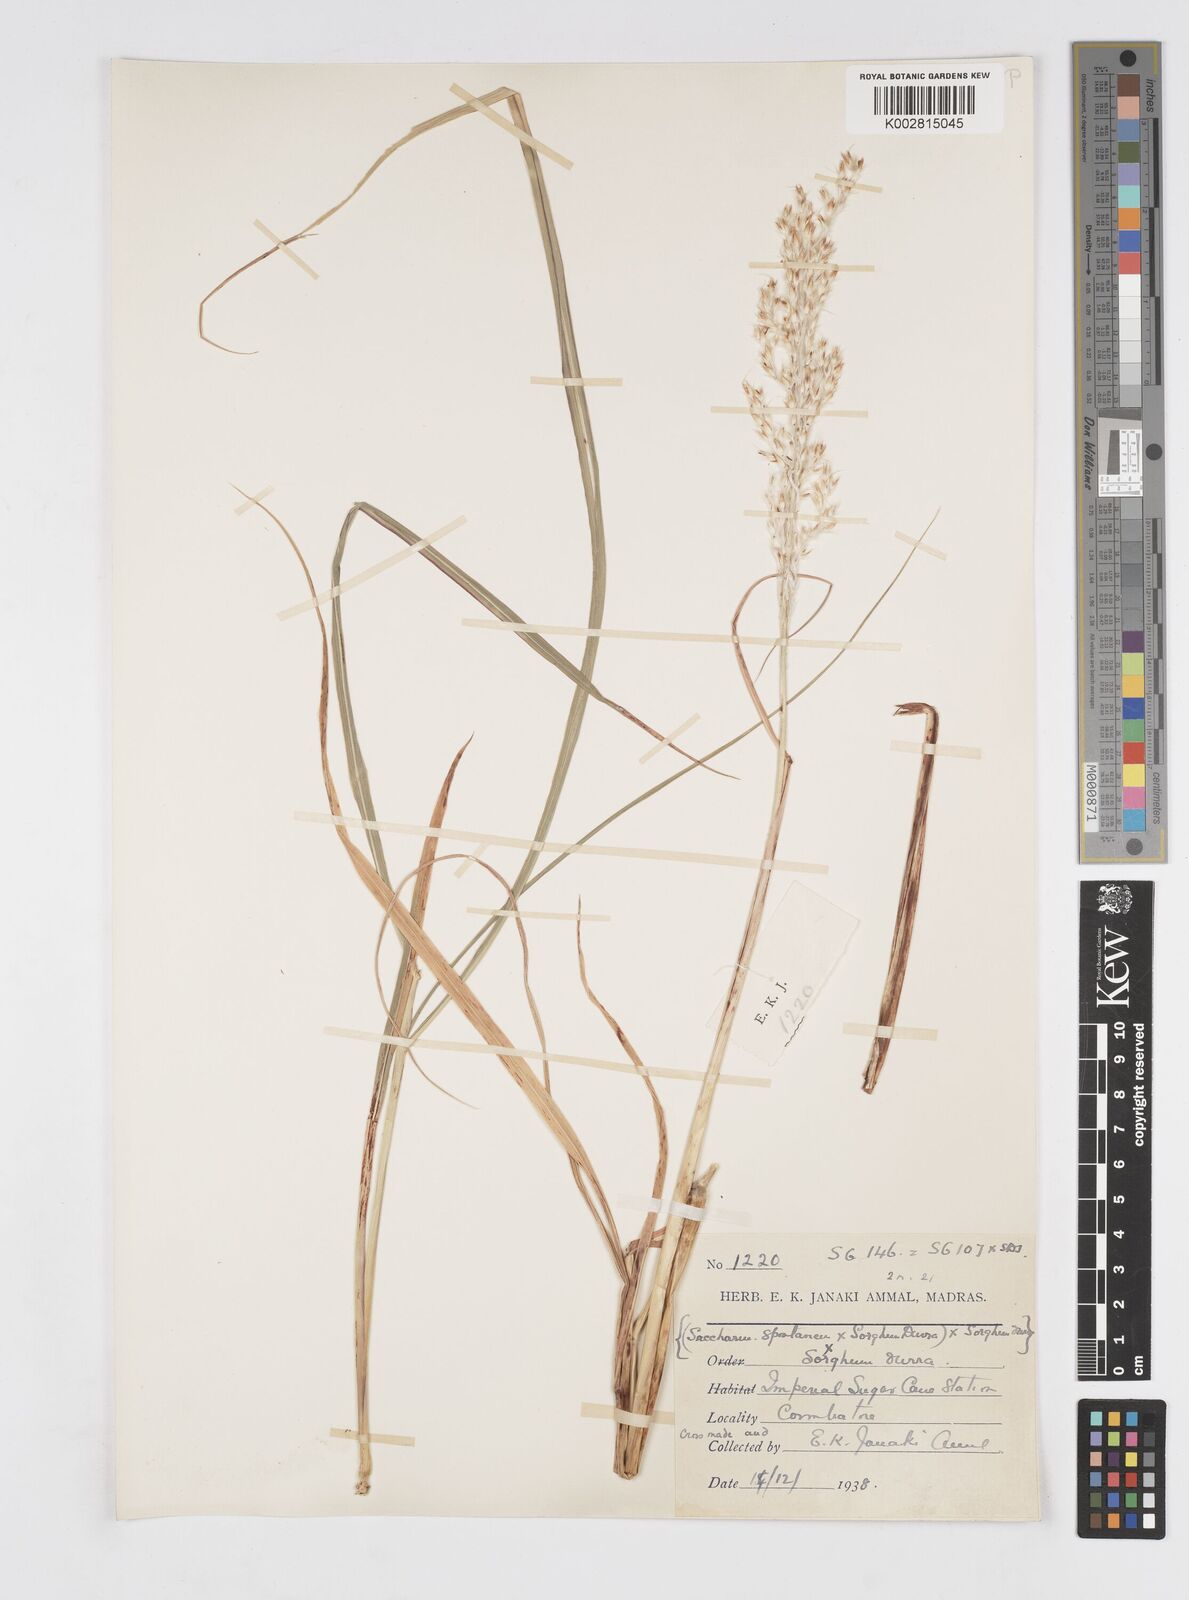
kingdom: Plantae
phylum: Tracheophyta
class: Liliopsida
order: Poales
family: Poaceae
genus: Saccharum
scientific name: Saccharum
